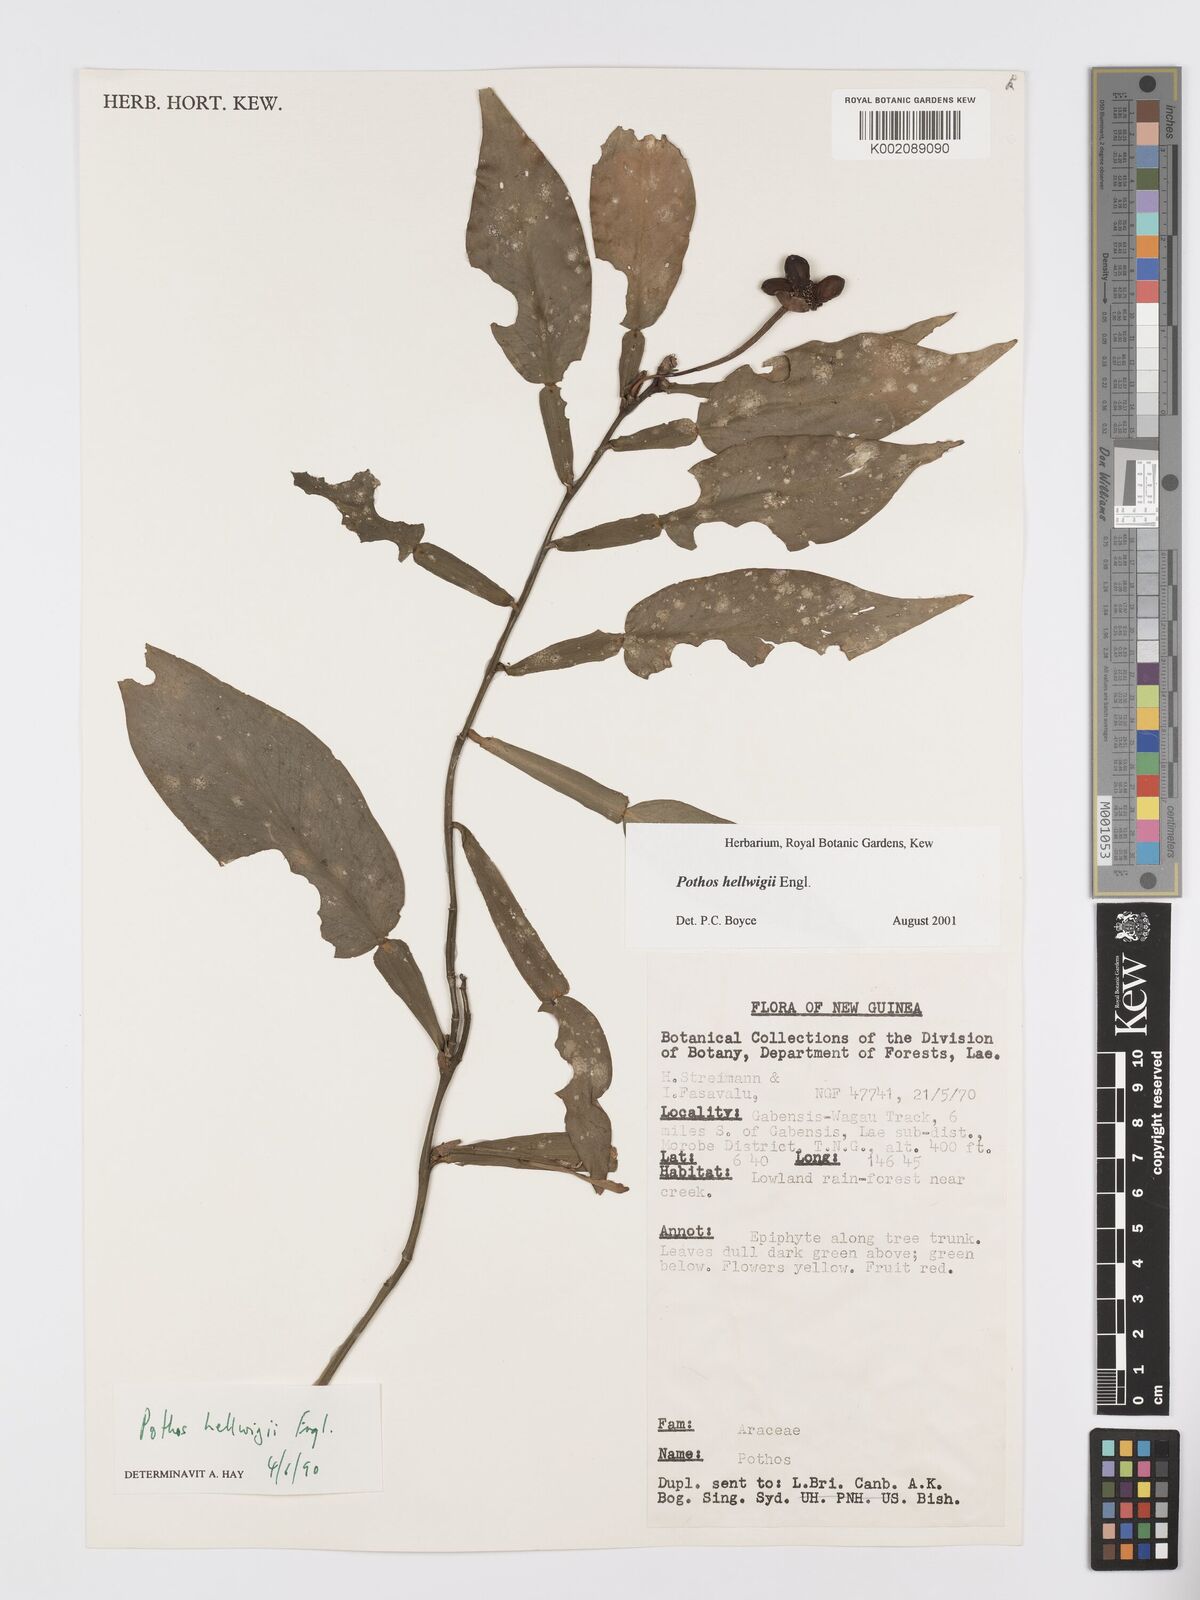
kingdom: Plantae
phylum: Tracheophyta
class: Liliopsida
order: Alismatales
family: Araceae
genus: Pothos
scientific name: Pothos hellwigii
